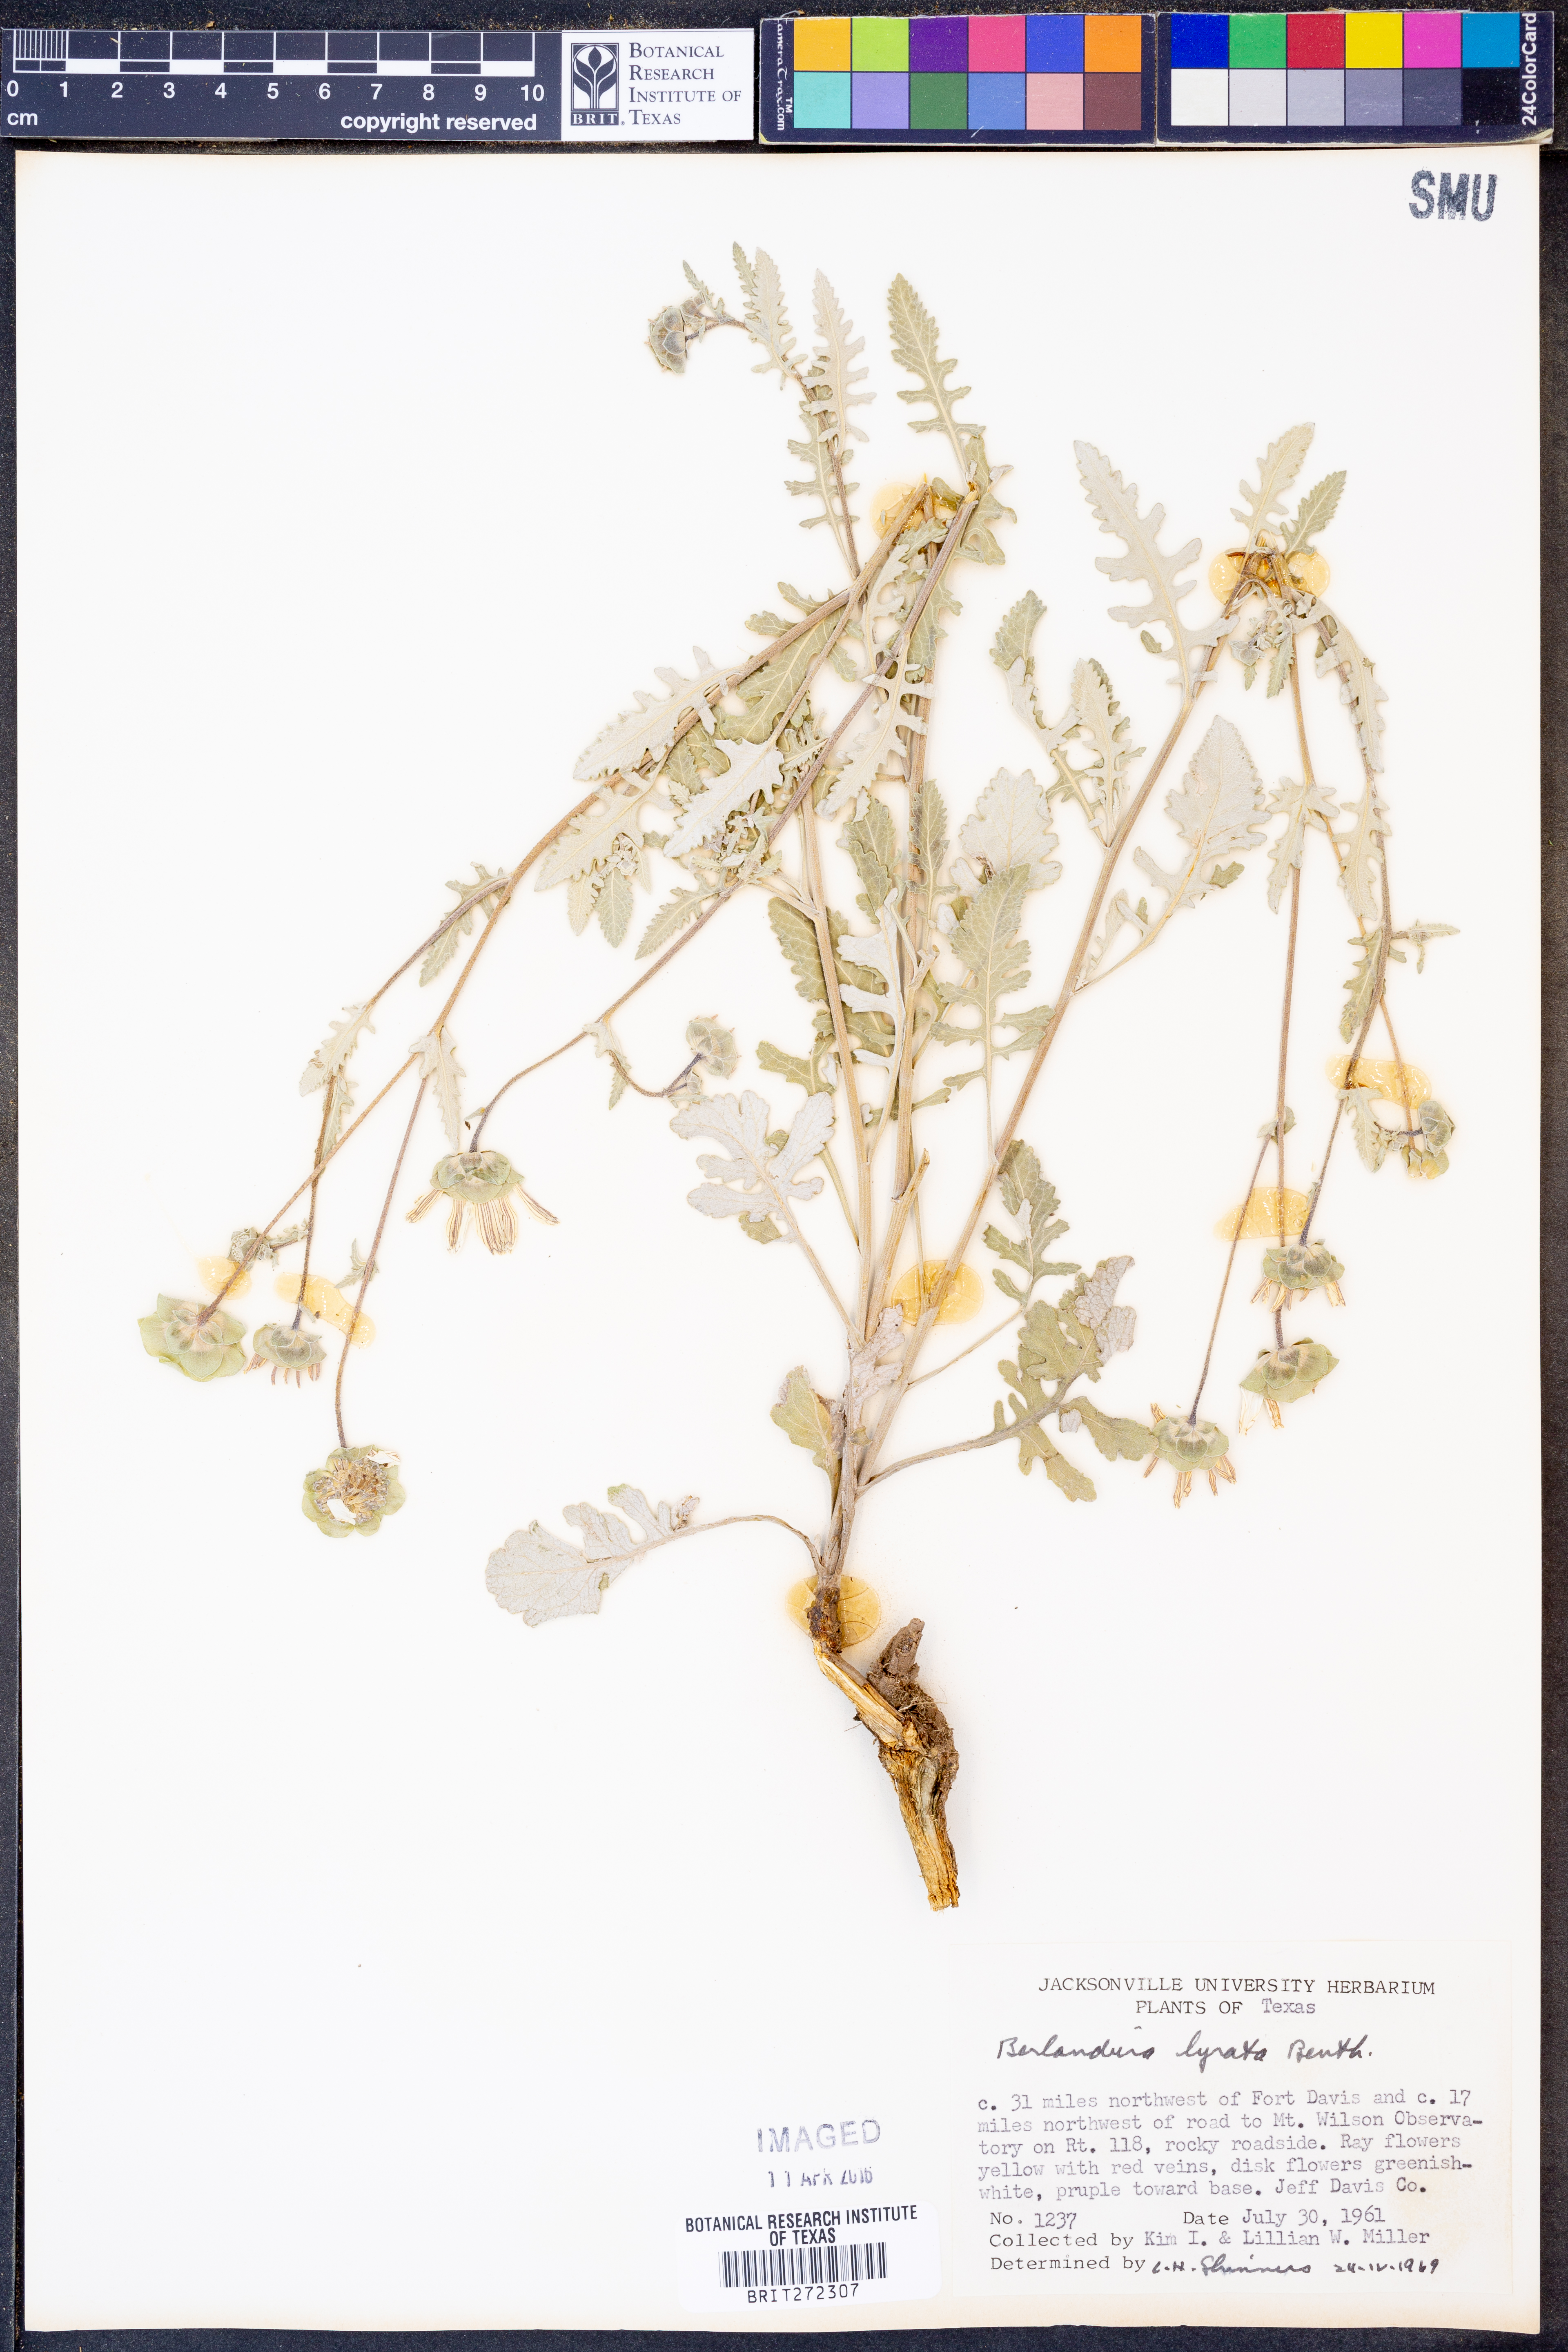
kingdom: Plantae
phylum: Tracheophyta
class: Magnoliopsida
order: Asterales
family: Asteraceae
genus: Berlandiera
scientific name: Berlandiera lyrata
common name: Chocolate-flower
